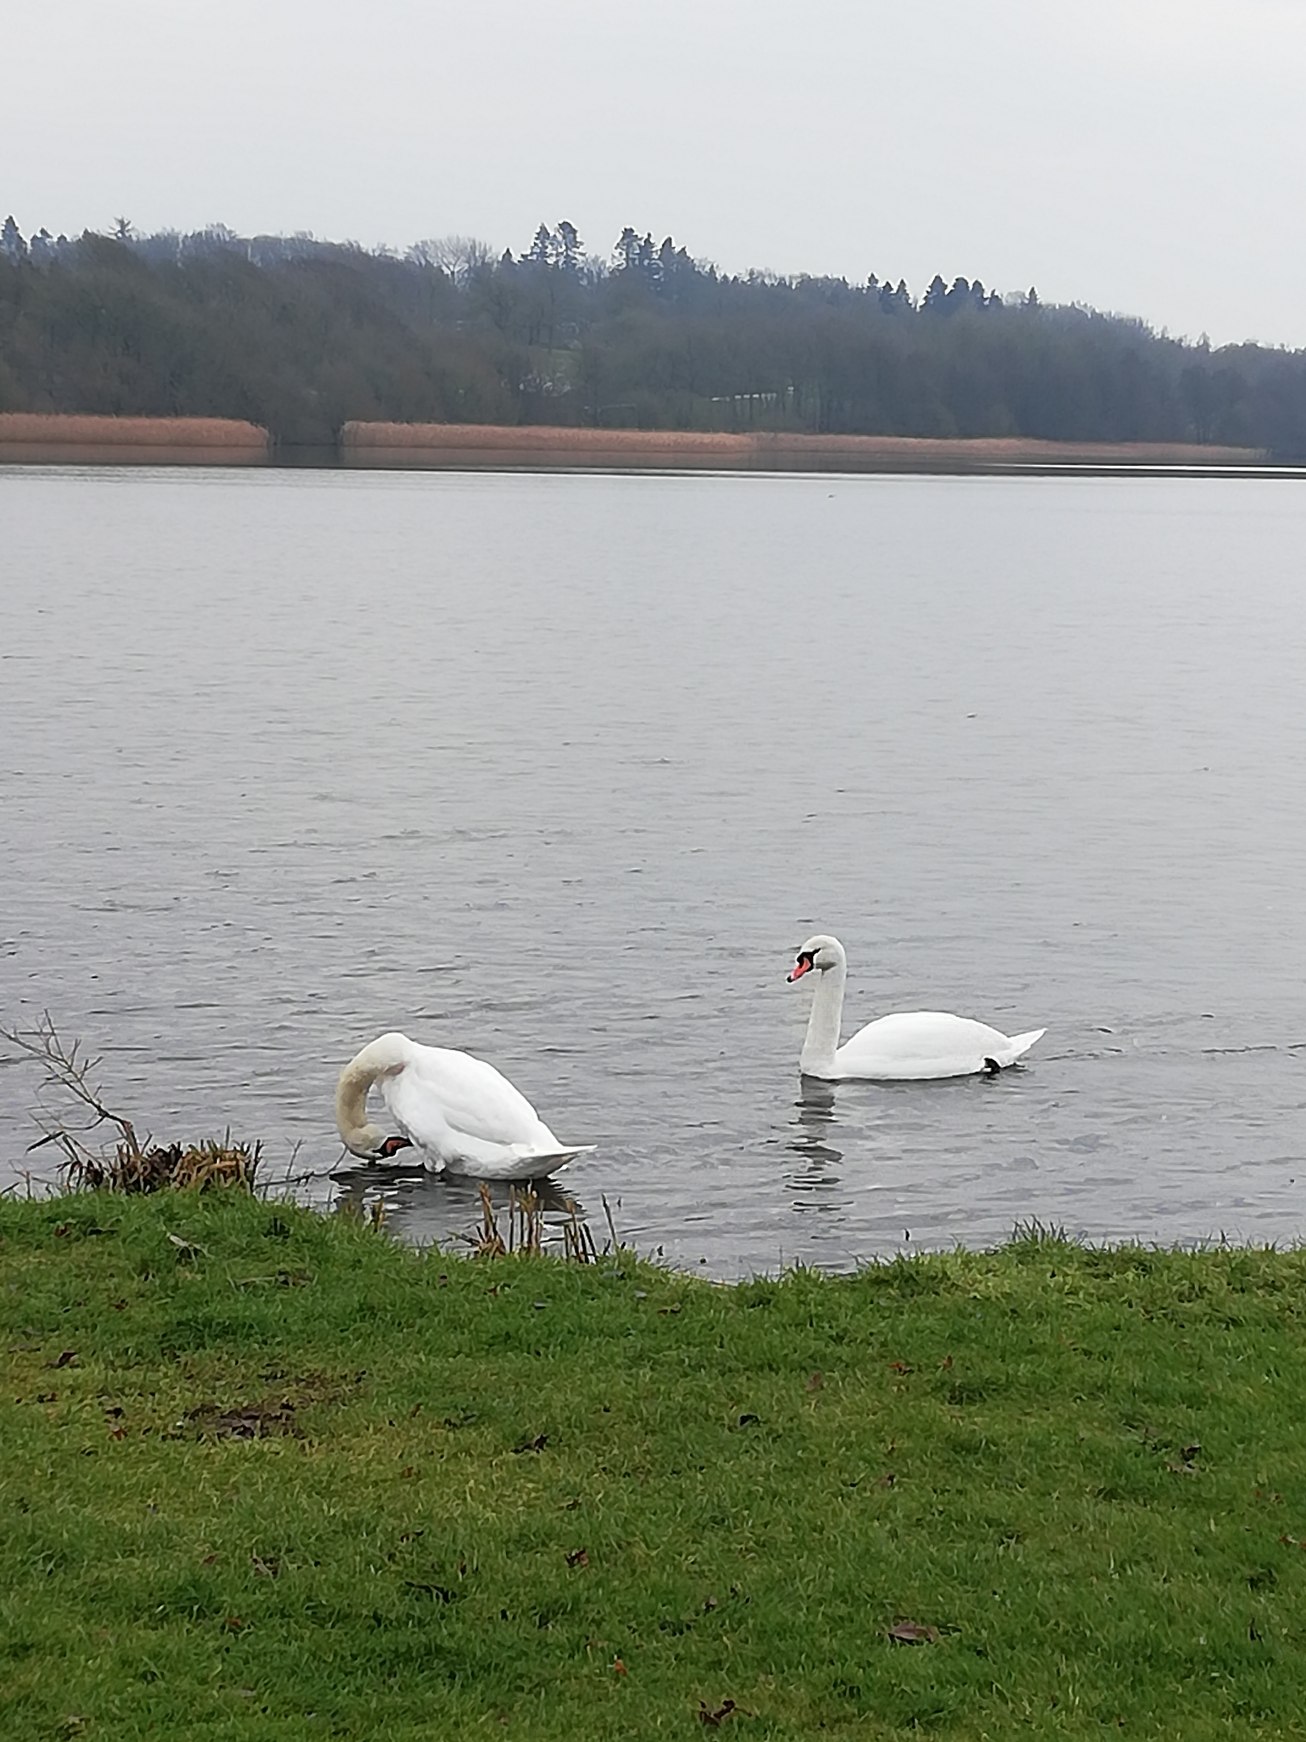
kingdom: Animalia
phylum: Chordata
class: Aves
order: Anseriformes
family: Anatidae
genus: Cygnus
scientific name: Cygnus olor
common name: Knopsvane
